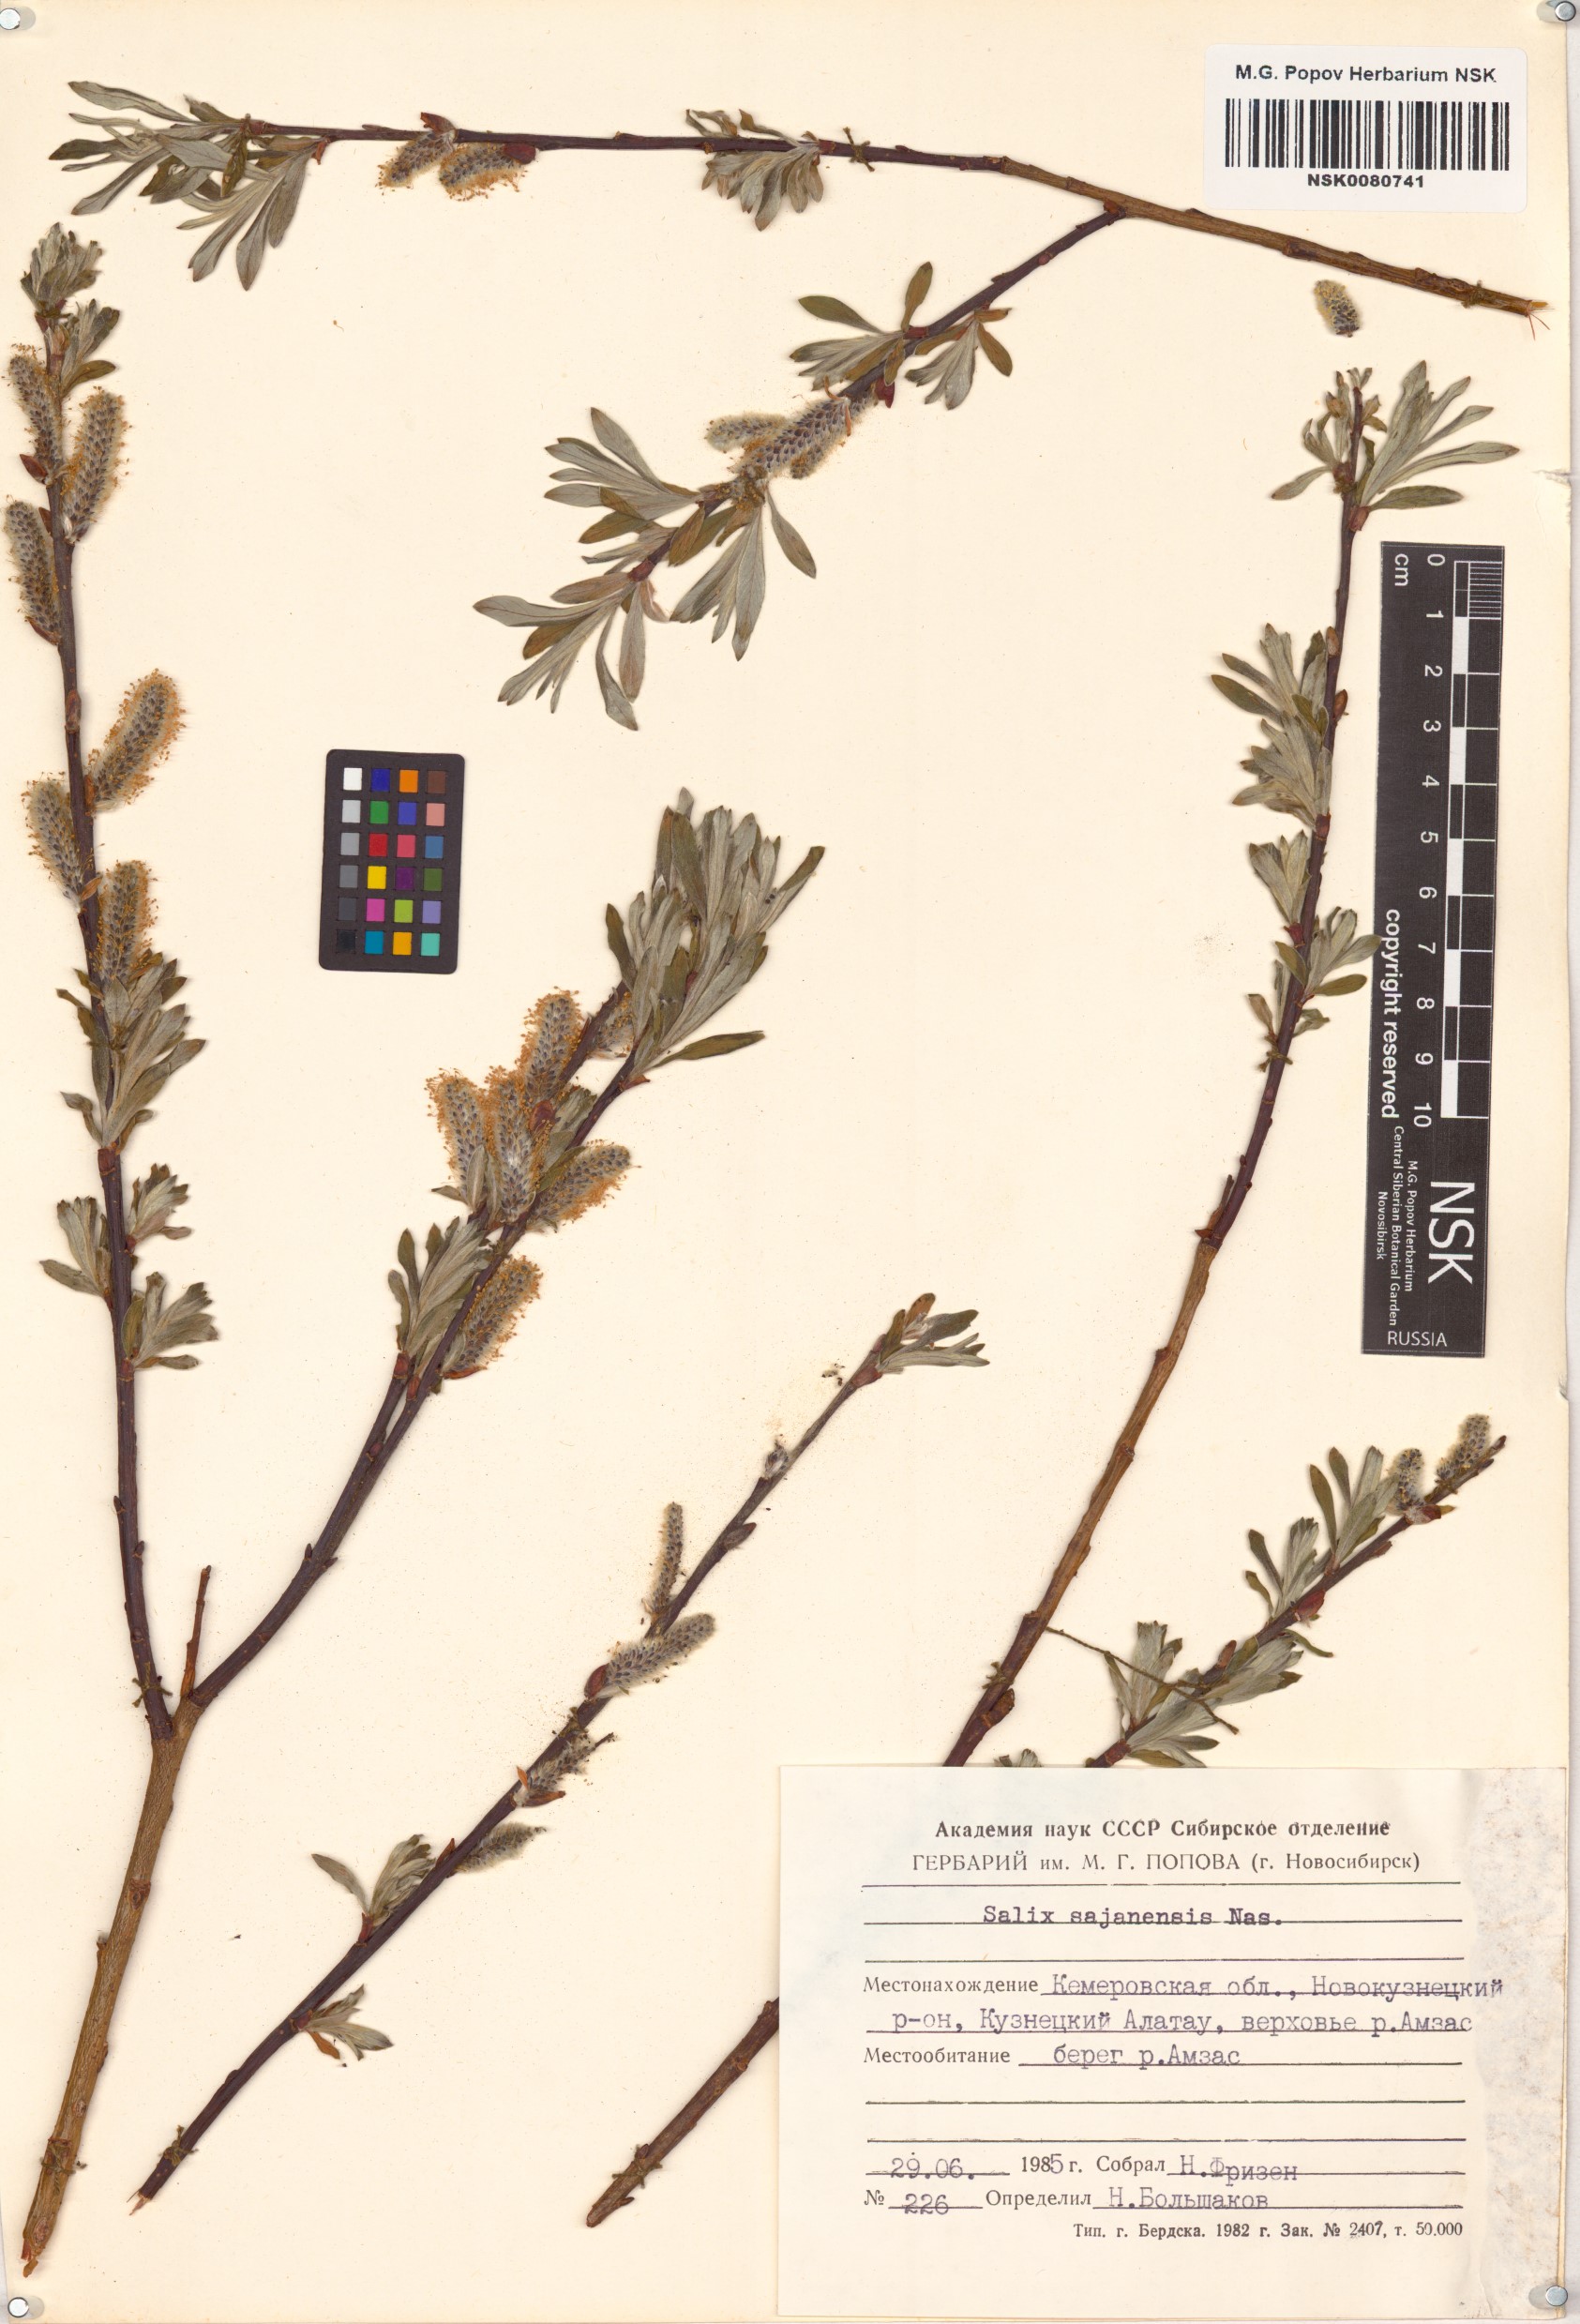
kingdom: Plantae
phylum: Tracheophyta
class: Magnoliopsida
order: Malpighiales
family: Salicaceae
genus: Salix
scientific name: Salix sajanensis
